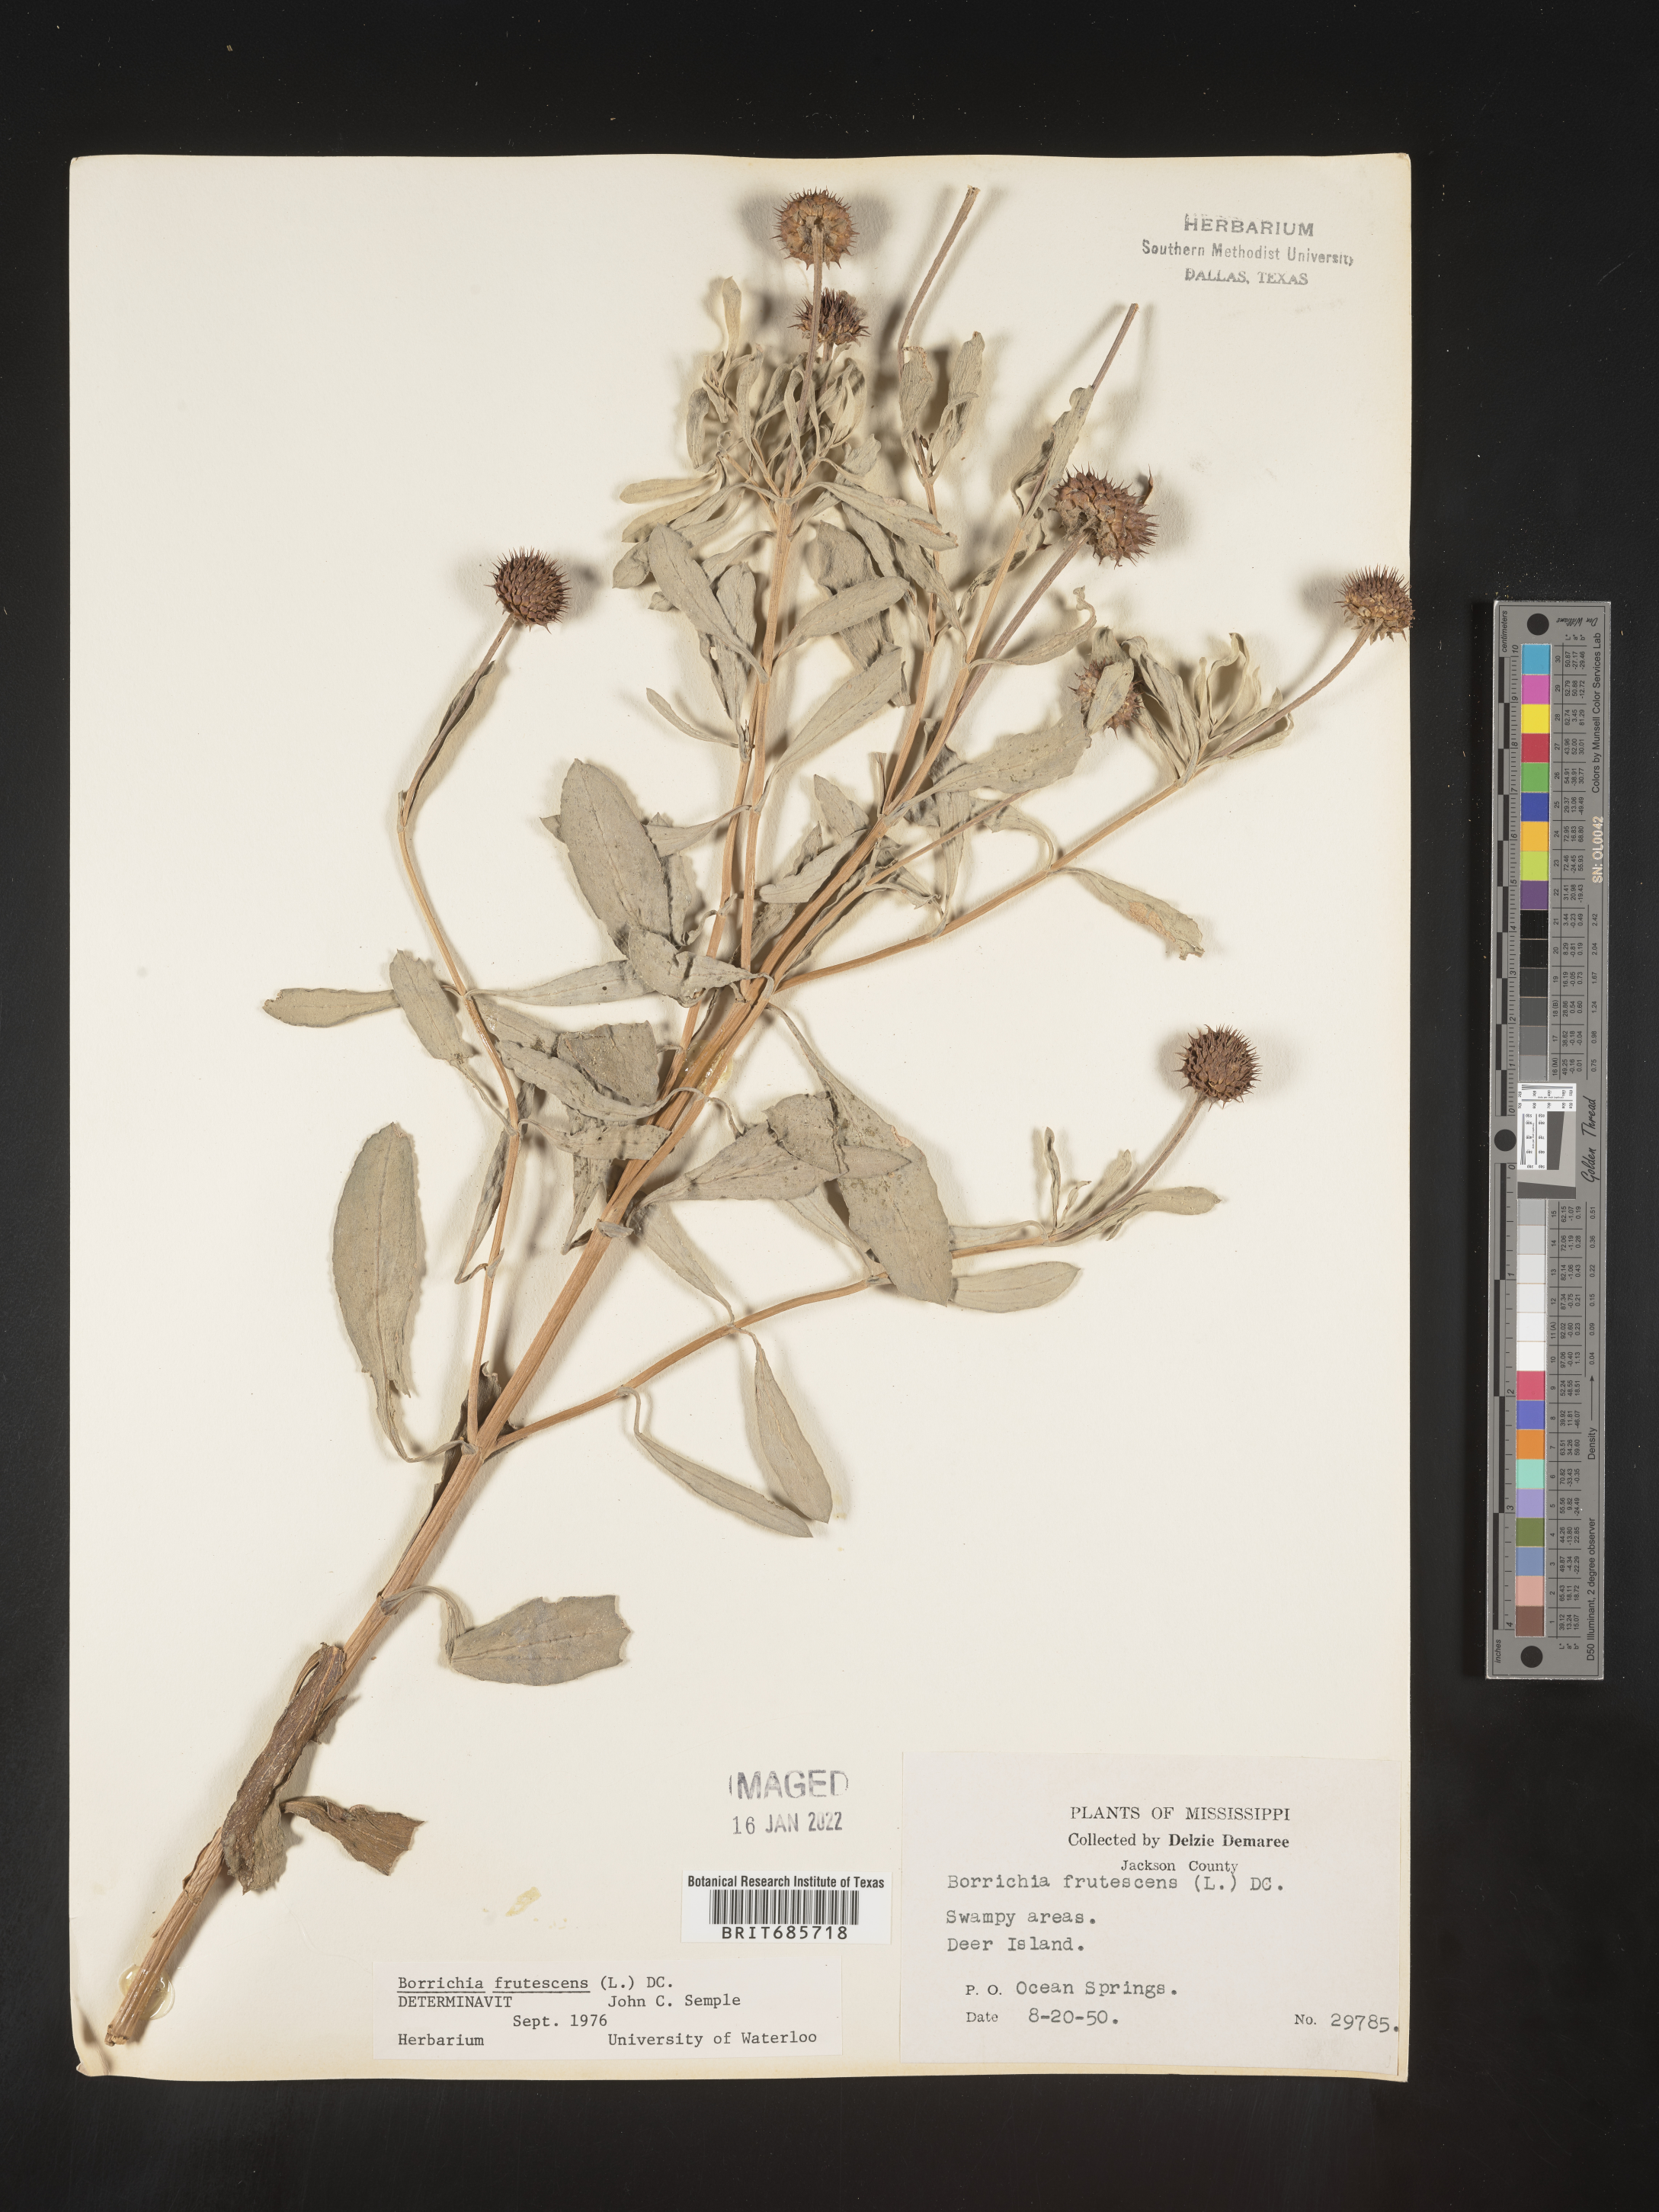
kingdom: Plantae
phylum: Tracheophyta
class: Magnoliopsida
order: Asterales
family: Asteraceae
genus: Borrichia
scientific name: Borrichia frutescens
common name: Sea oxeye
